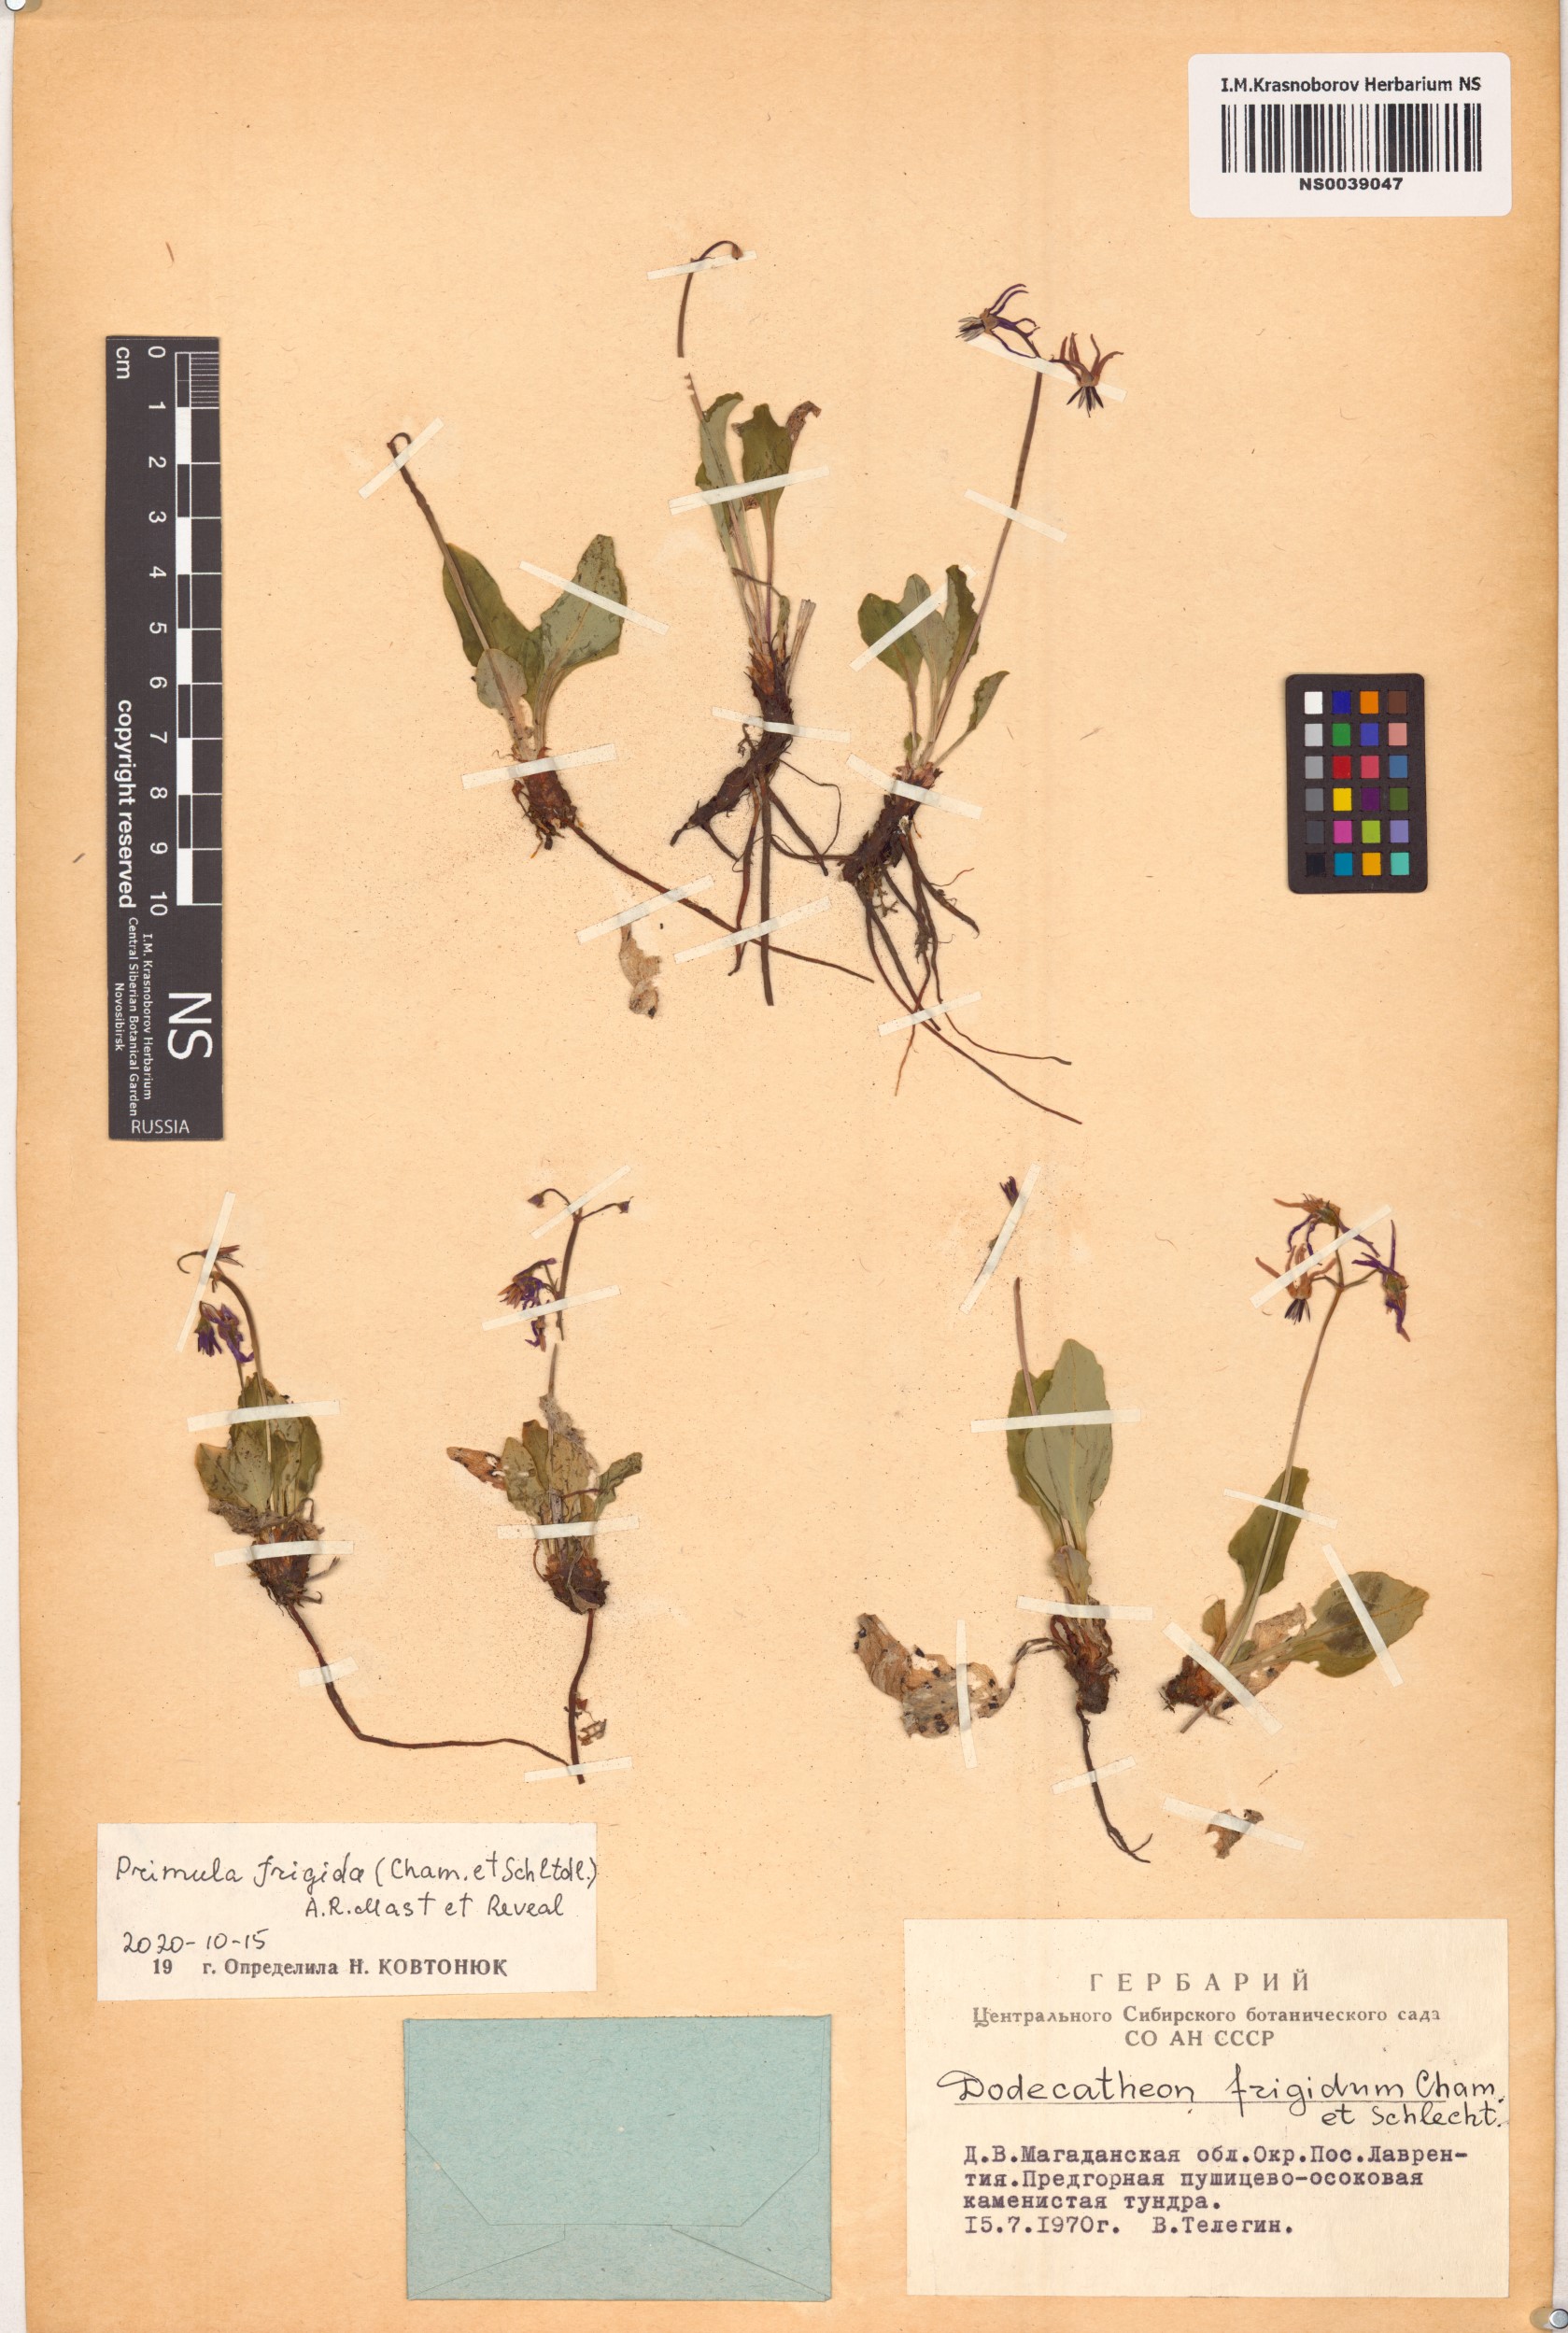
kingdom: Plantae
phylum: Tracheophyta
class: Magnoliopsida
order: Ericales
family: Primulaceae
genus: Dodecatheon
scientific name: Dodecatheon frigidum
